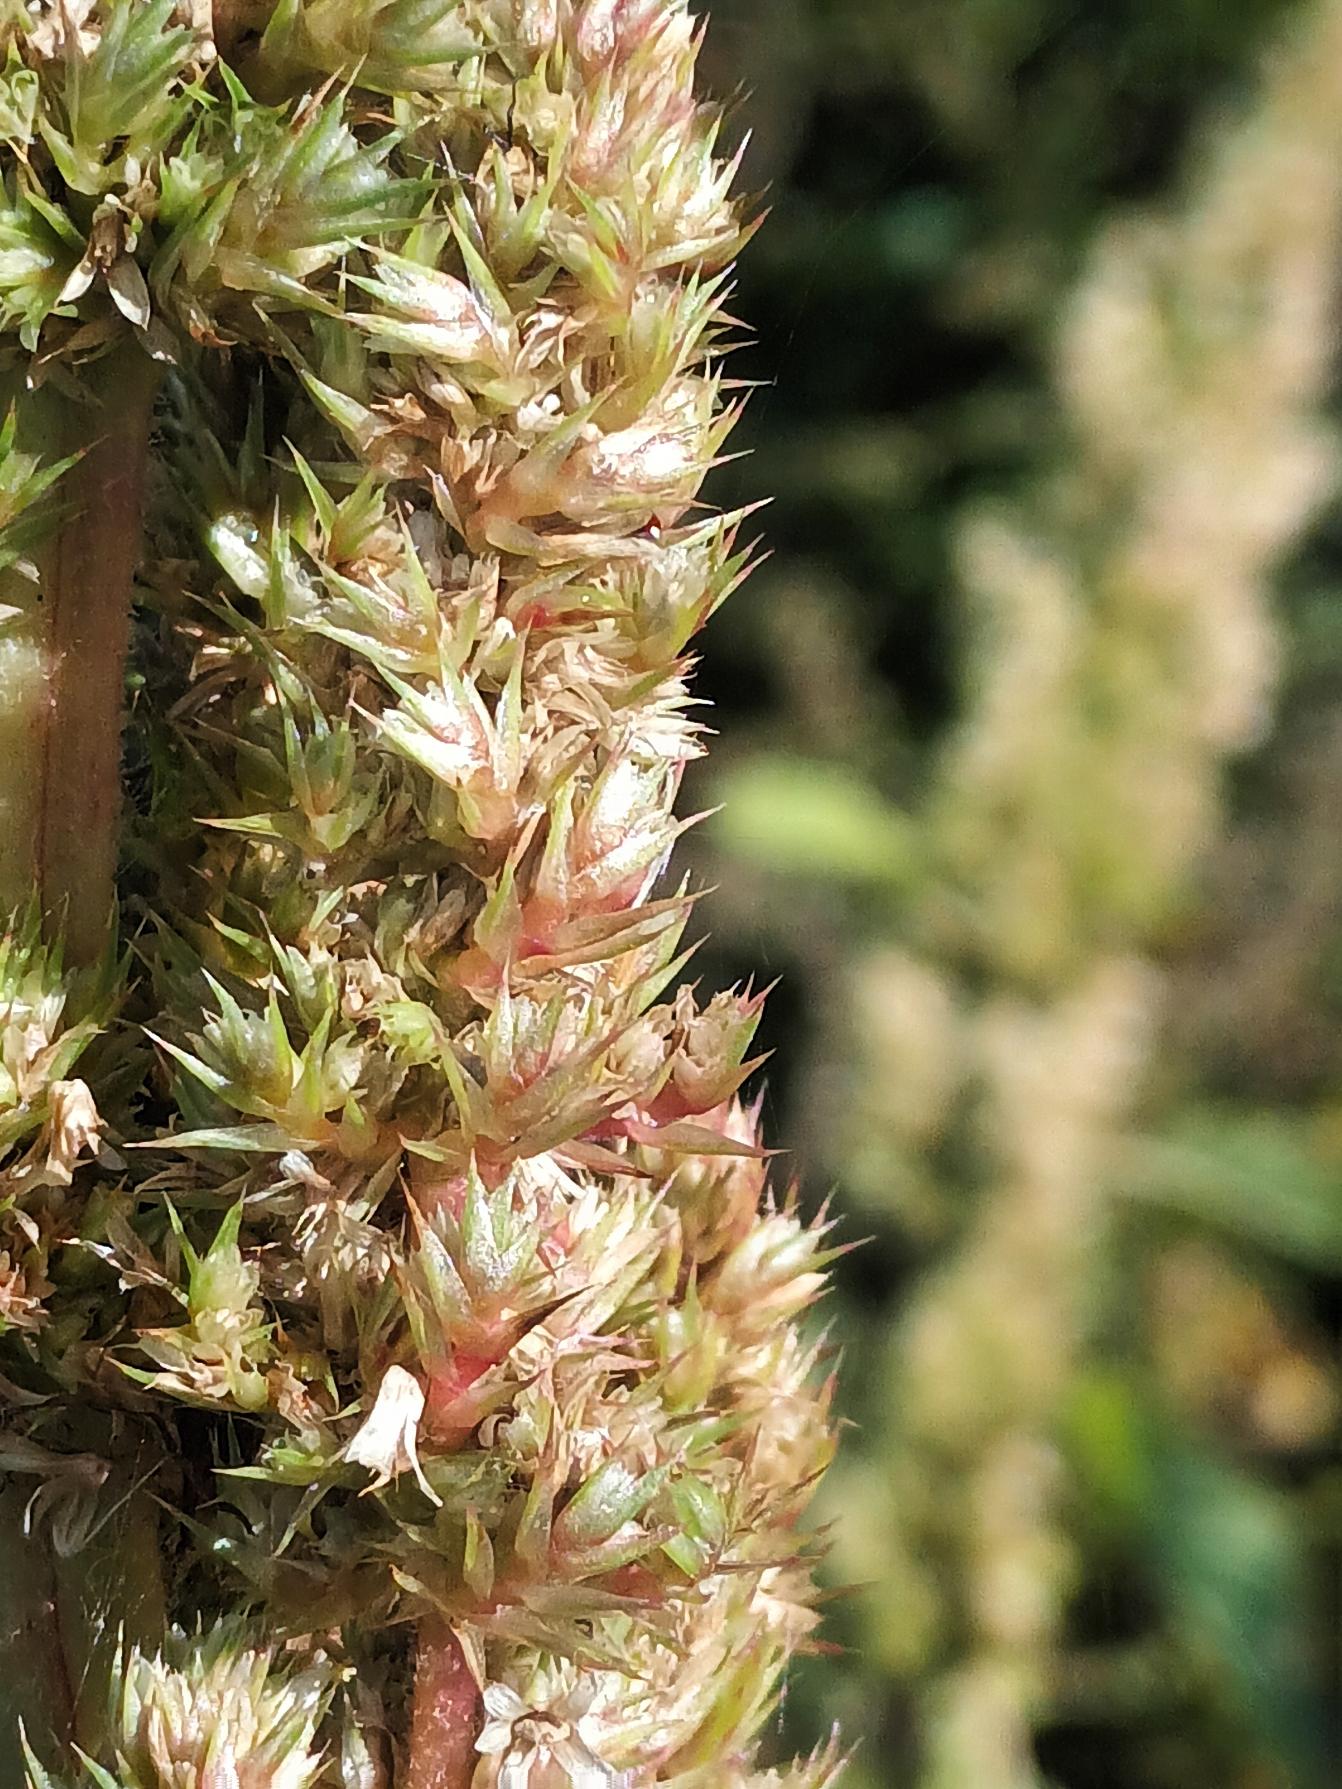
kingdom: Plantae
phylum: Tracheophyta
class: Magnoliopsida
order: Caryophyllales
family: Amaranthaceae
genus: Amaranthus
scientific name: Amaranthus retroflexus
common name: Opret amarant
